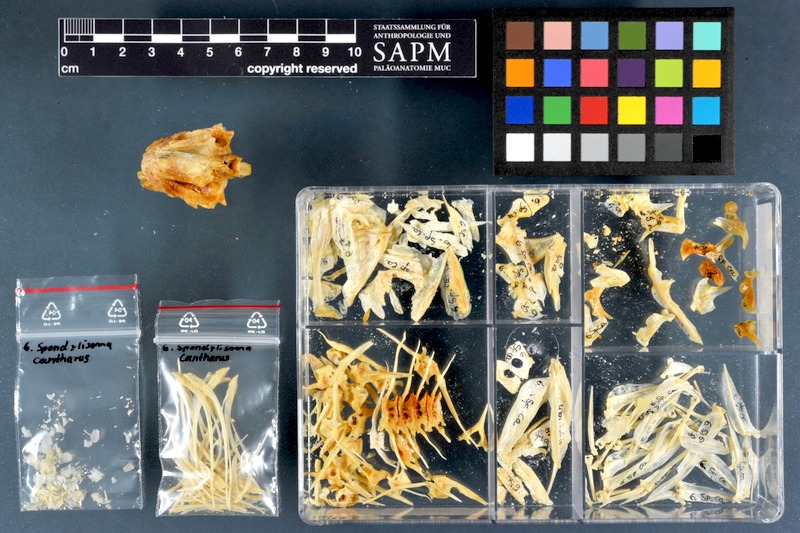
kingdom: Animalia
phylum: Chordata
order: Perciformes
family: Sparidae
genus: Spondyliosoma
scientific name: Spondyliosoma cantharus
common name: Black seabream
